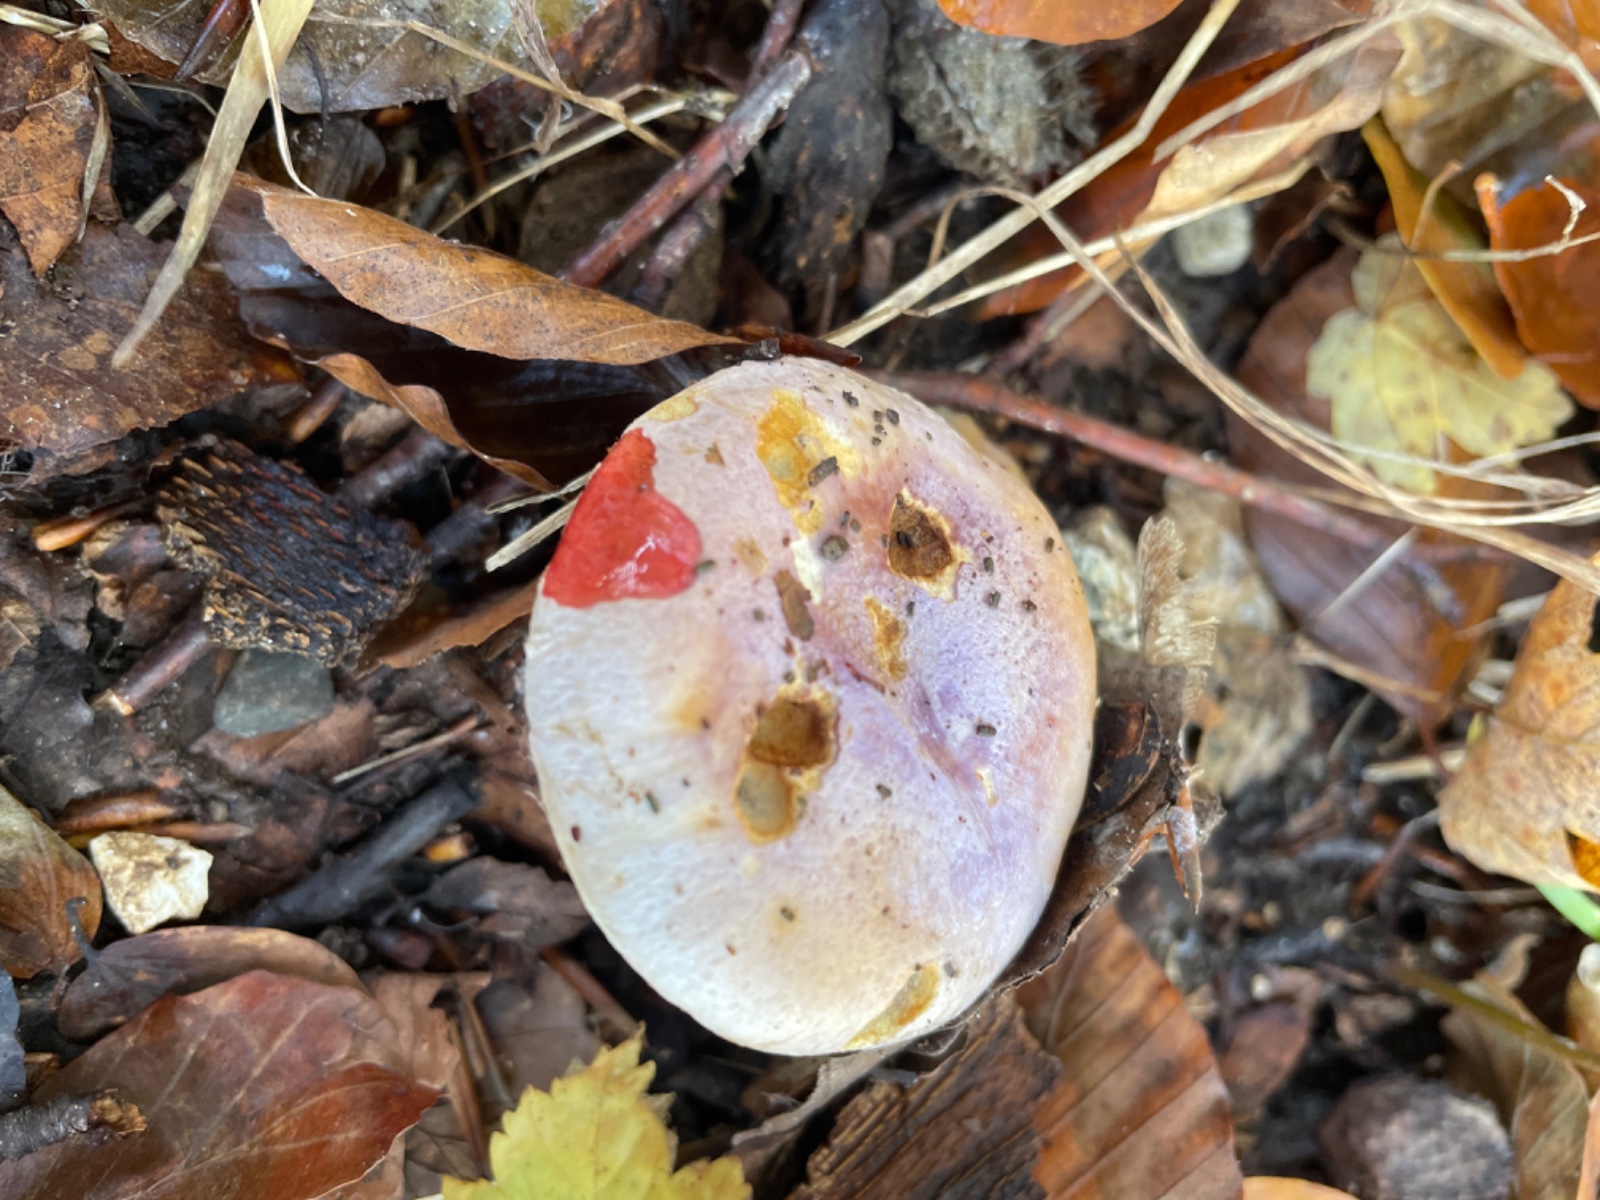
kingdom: Fungi
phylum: Basidiomycota
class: Agaricomycetes
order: Agaricales
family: Cortinariaceae
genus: Calonarius
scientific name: Calonarius sodagnitus
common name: violblå slørhat
